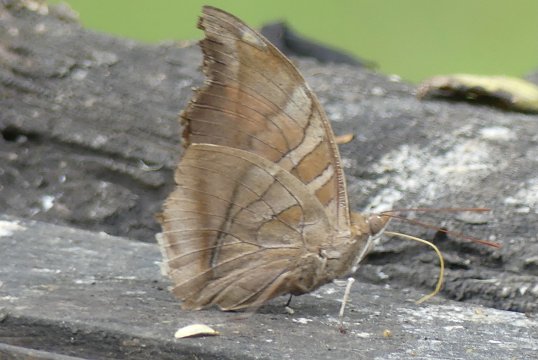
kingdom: Animalia
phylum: Arthropoda
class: Insecta
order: Lepidoptera
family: Nymphalidae
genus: Historis
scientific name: Historis odius
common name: Orion Cecropian
